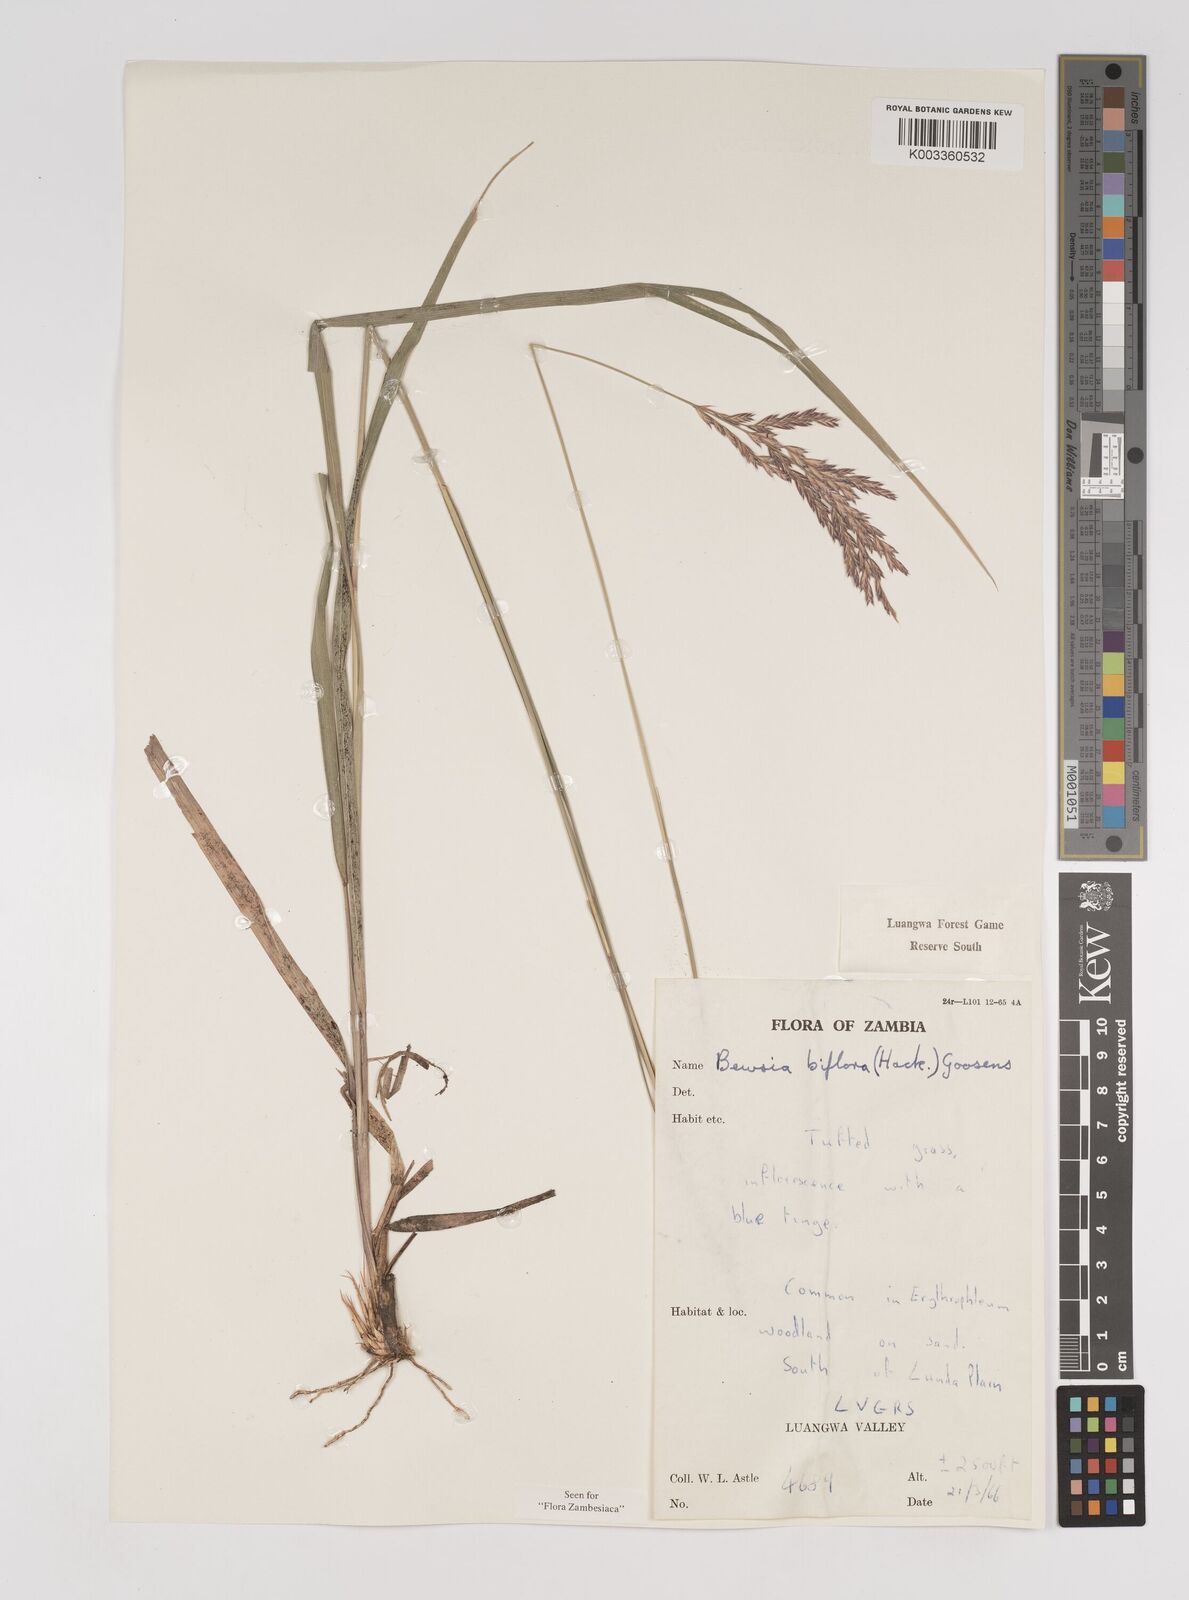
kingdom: Plantae
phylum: Tracheophyta
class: Liliopsida
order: Poales
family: Poaceae
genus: Bewsia
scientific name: Bewsia biflora
